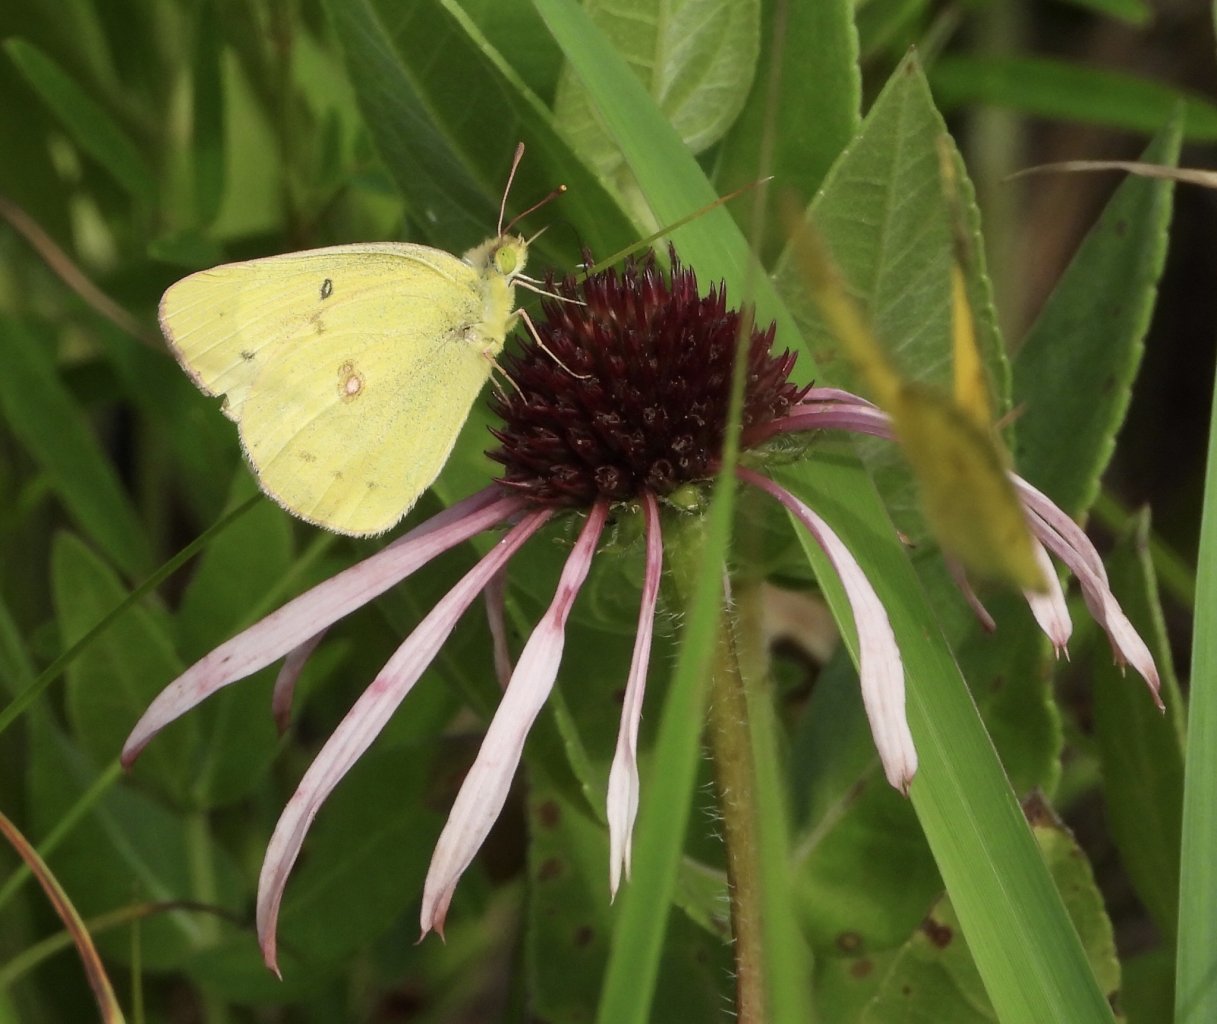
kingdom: Animalia
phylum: Arthropoda
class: Insecta
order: Lepidoptera
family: Pieridae
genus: Colias
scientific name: Colias philodice
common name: Clouded Sulphur
